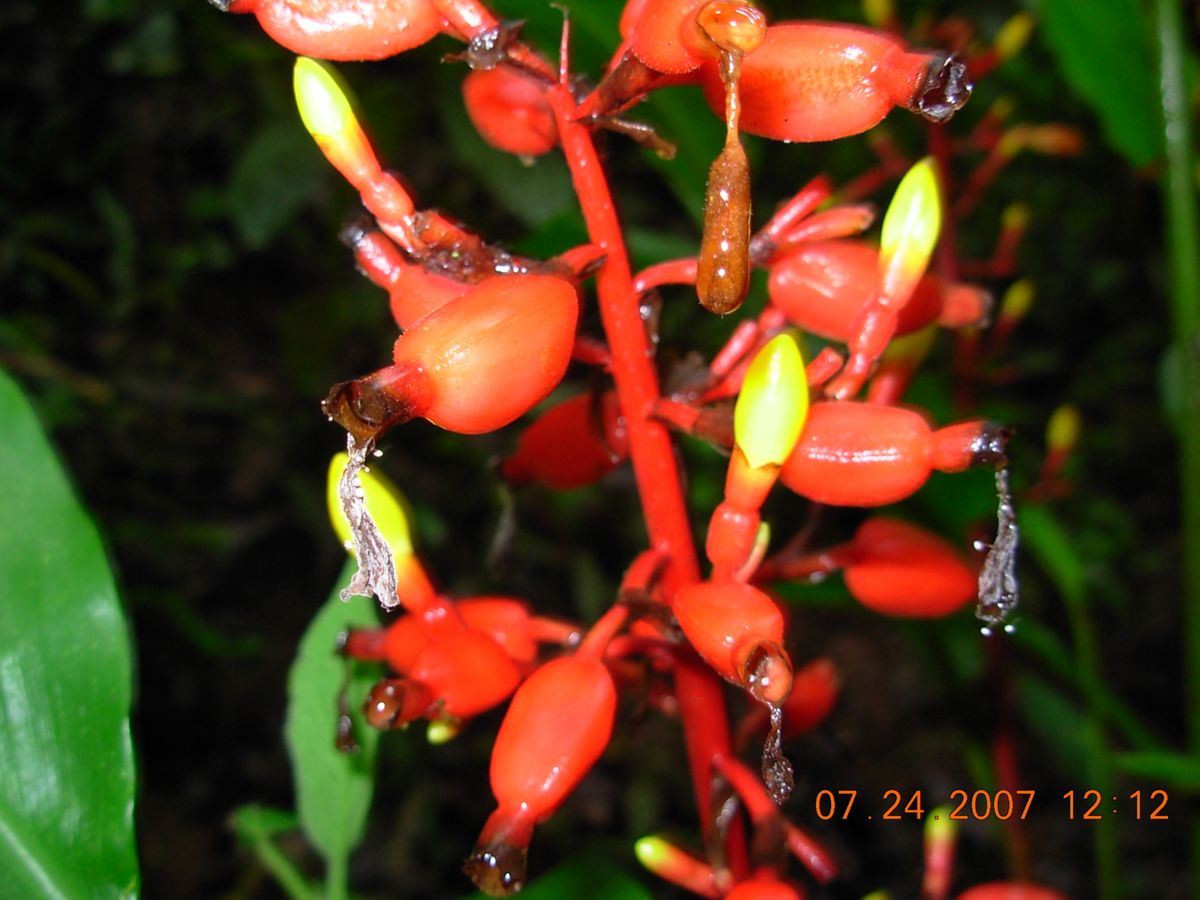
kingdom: Plantae
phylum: Tracheophyta
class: Liliopsida
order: Zingiberales
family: Zingiberaceae
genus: Renealmia
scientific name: Renealmia pacifica
